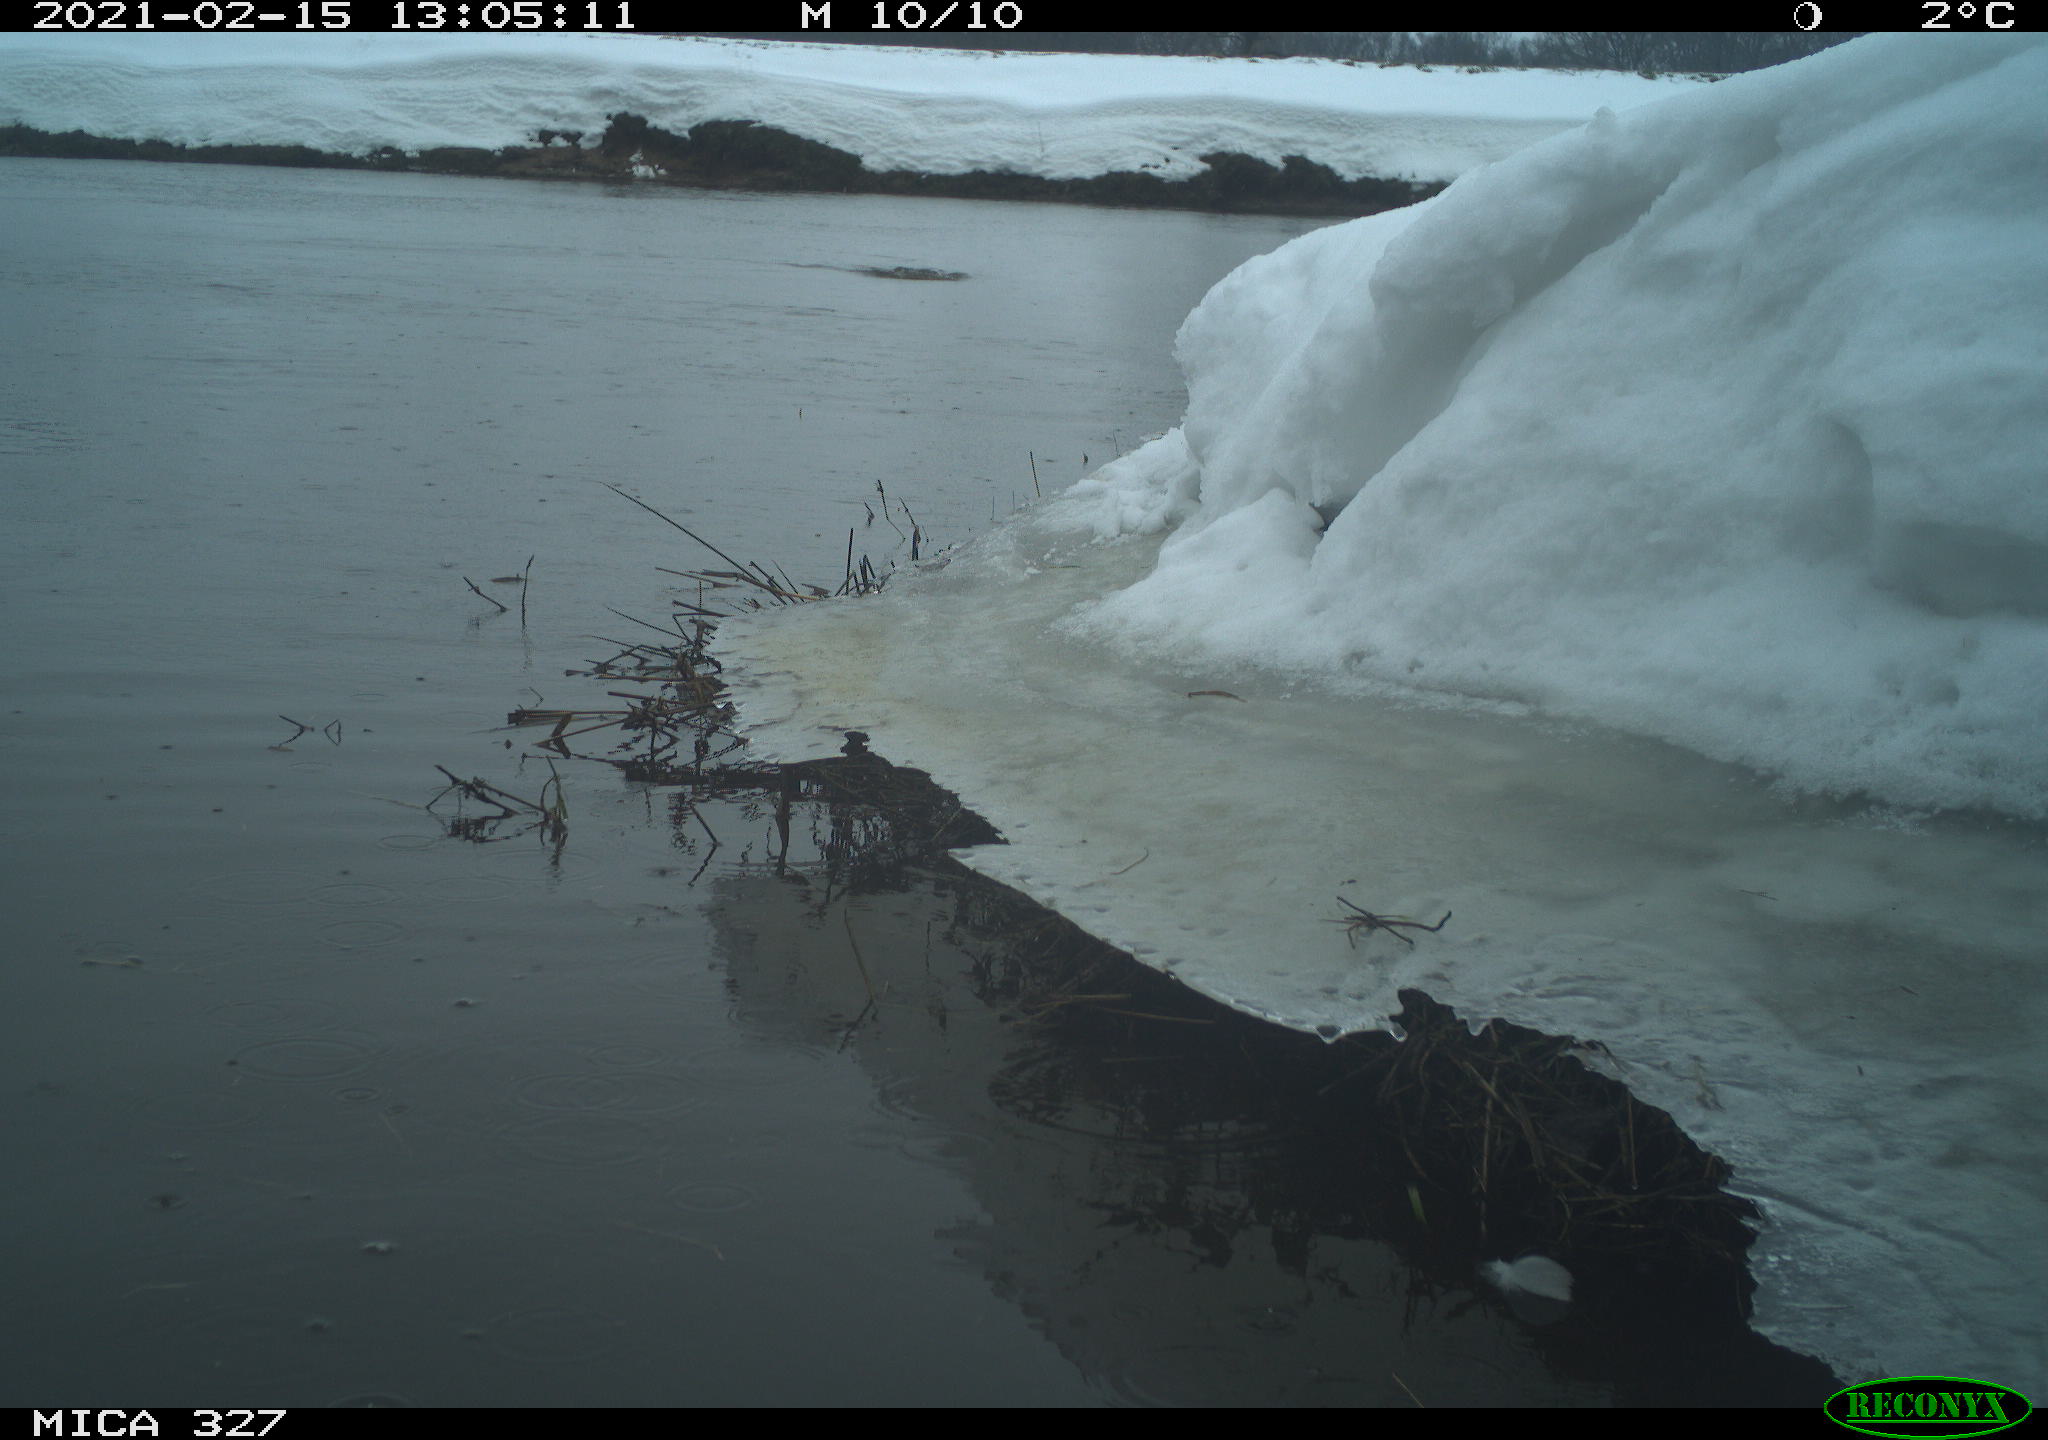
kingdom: Animalia
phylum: Chordata
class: Aves
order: Suliformes
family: Phalacrocoracidae
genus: Phalacrocorax
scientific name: Phalacrocorax carbo
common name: Great cormorant
